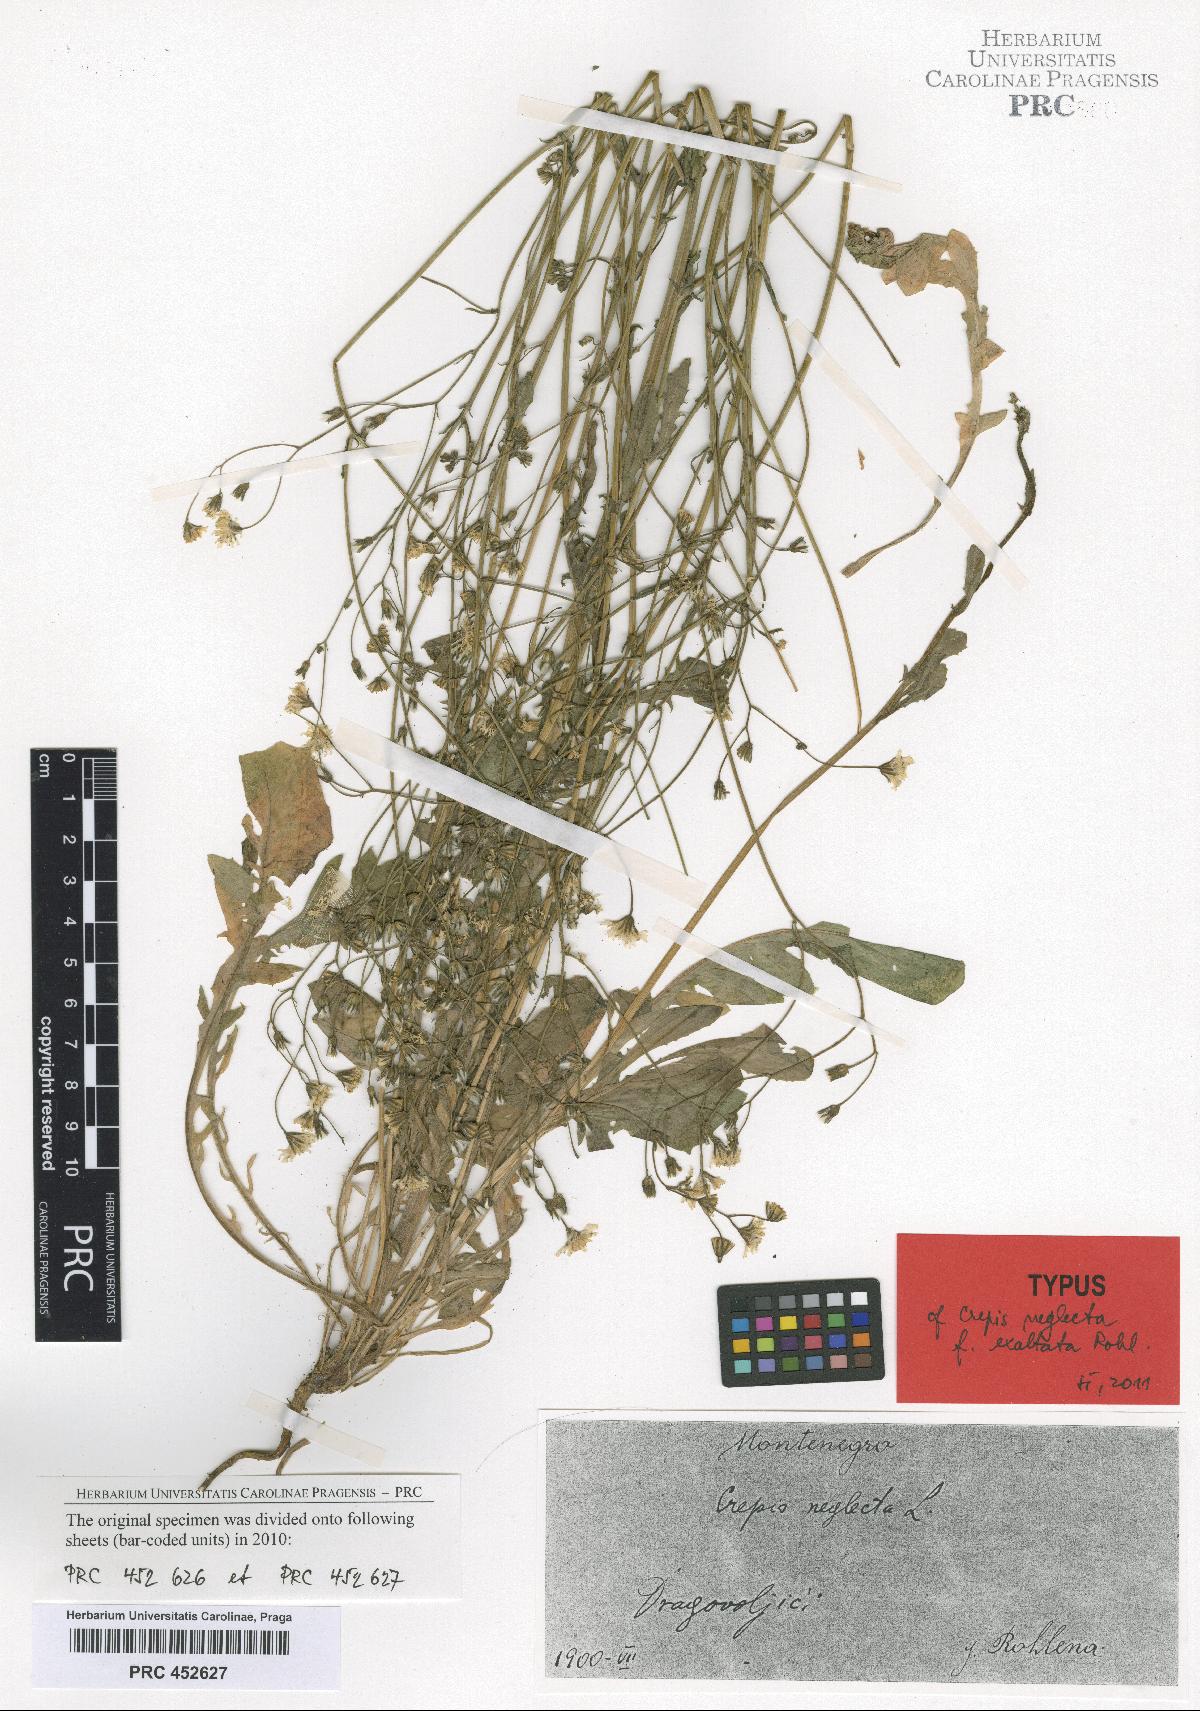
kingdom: Plantae
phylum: Tracheophyta
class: Magnoliopsida
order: Asterales
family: Asteraceae
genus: Crepis
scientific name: Crepis neglecta
